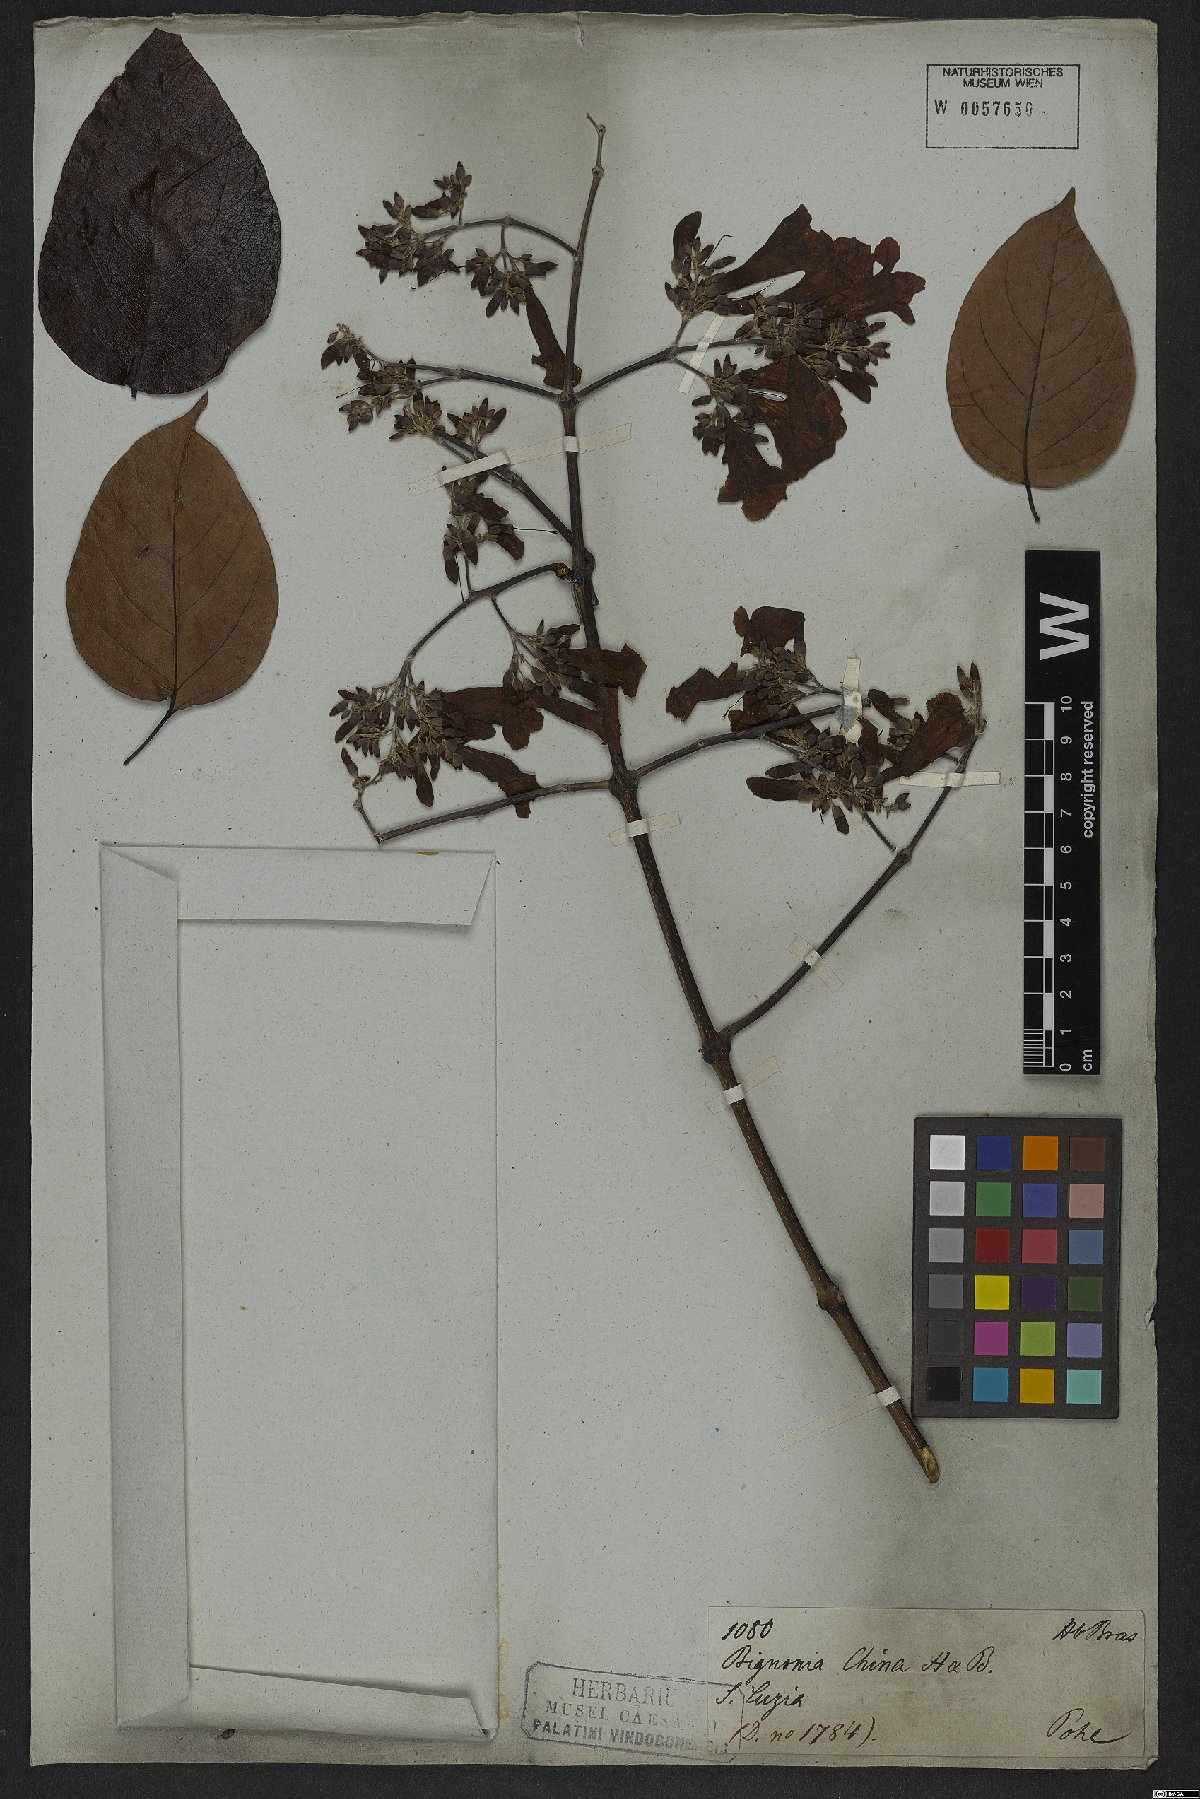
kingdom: Plantae
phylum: Tracheophyta
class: Magnoliopsida
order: Lamiales
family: Bignoniaceae
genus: Fridericia
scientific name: Fridericia chica
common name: Cricketvine
